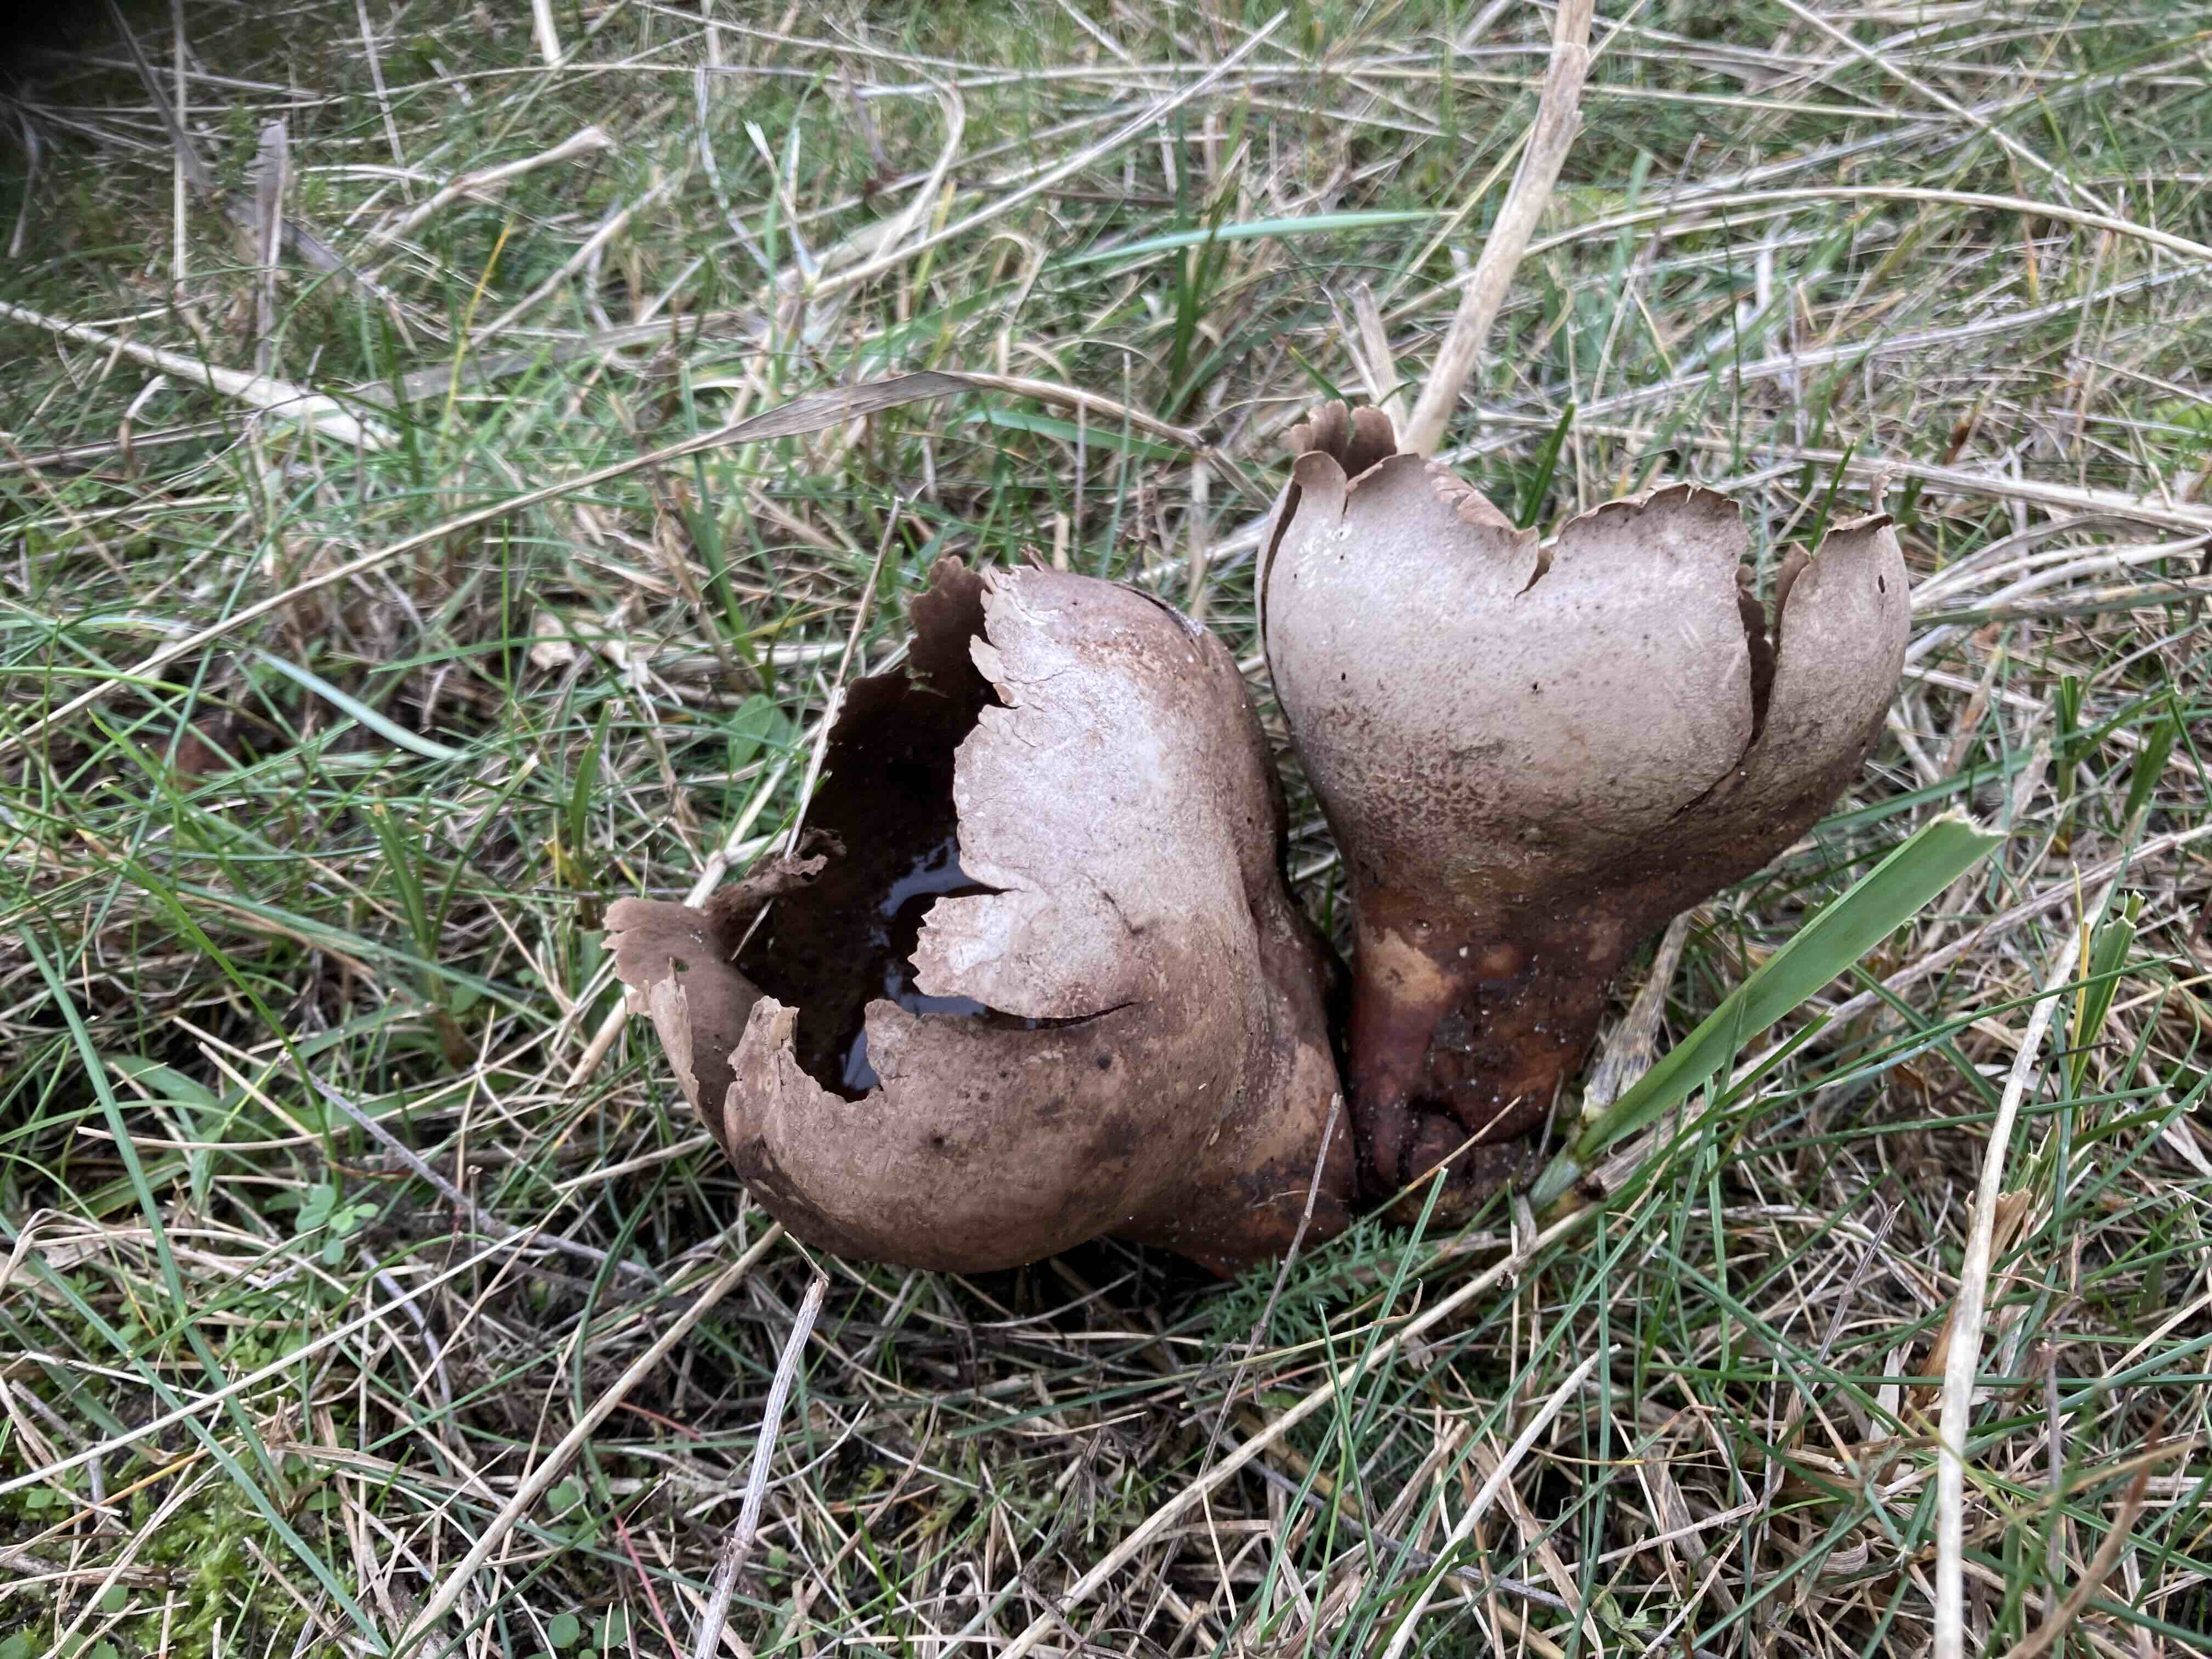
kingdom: Fungi
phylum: Basidiomycota
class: Agaricomycetes
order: Agaricales
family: Lycoperdaceae
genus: Bovistella
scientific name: Bovistella utriformis
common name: skællet støvbold
